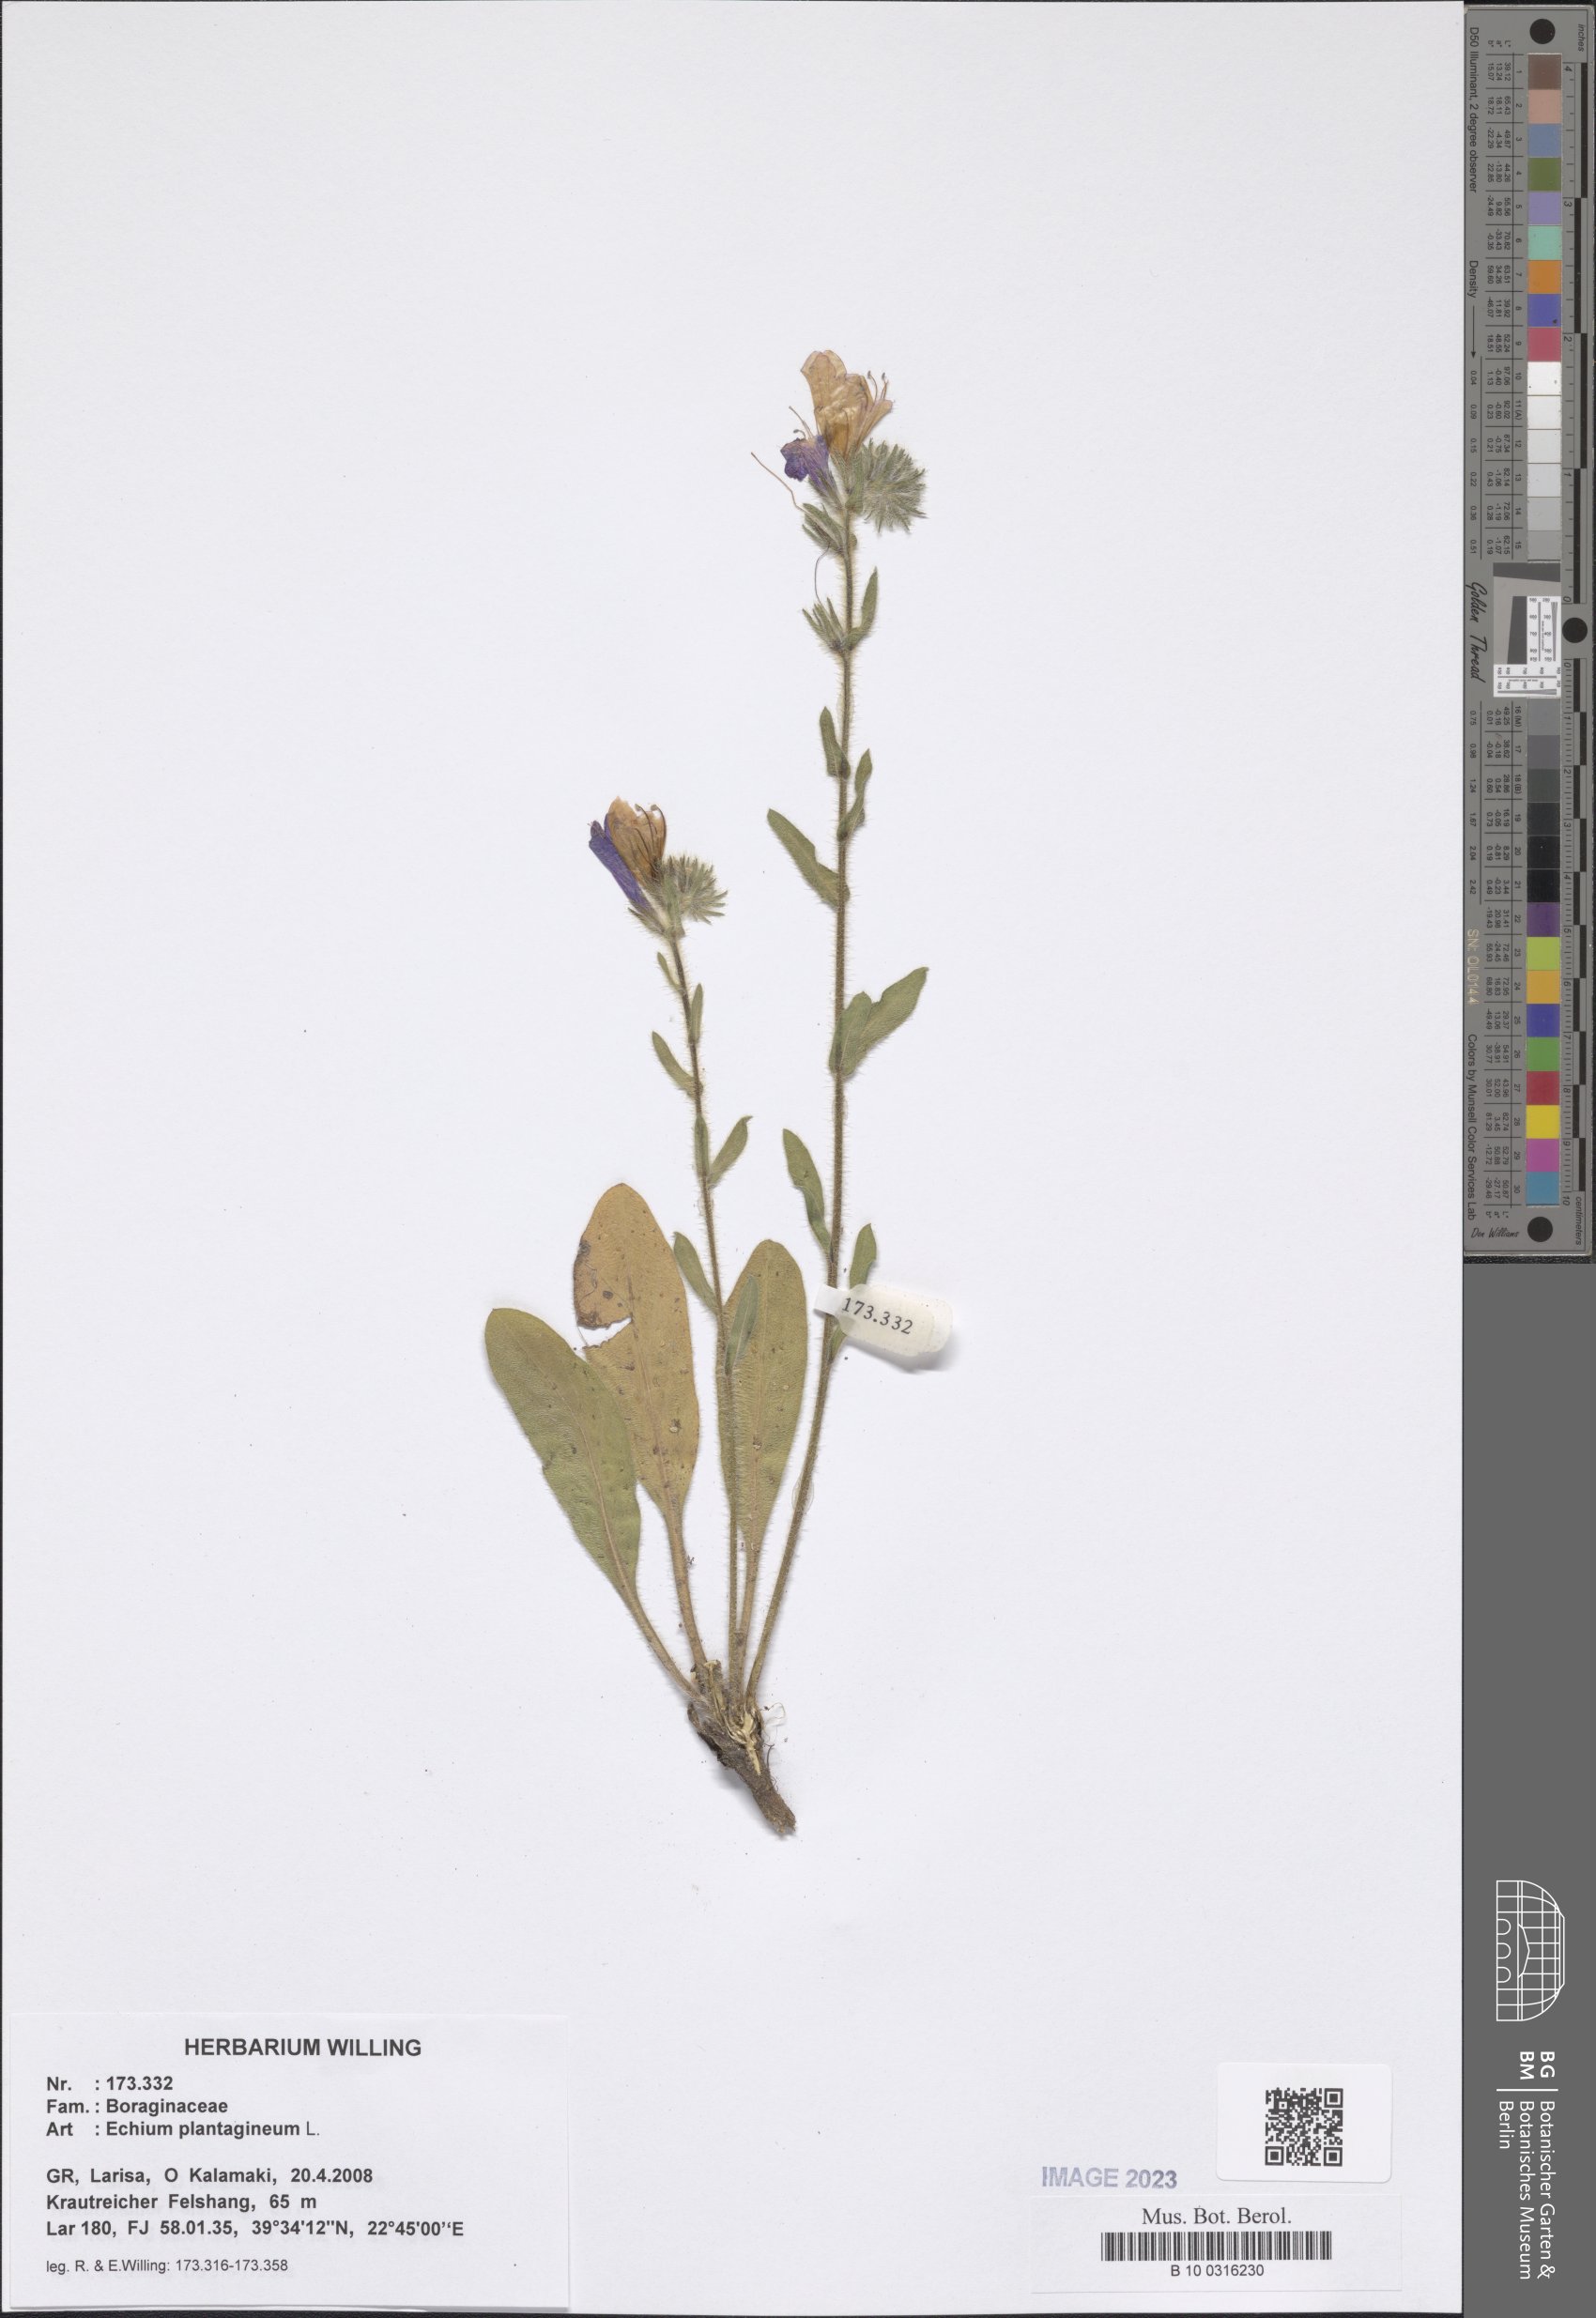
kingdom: Plantae
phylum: Tracheophyta
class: Magnoliopsida
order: Boraginales
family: Boraginaceae
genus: Echium
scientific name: Echium plantagineum
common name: Purple viper's-bugloss
